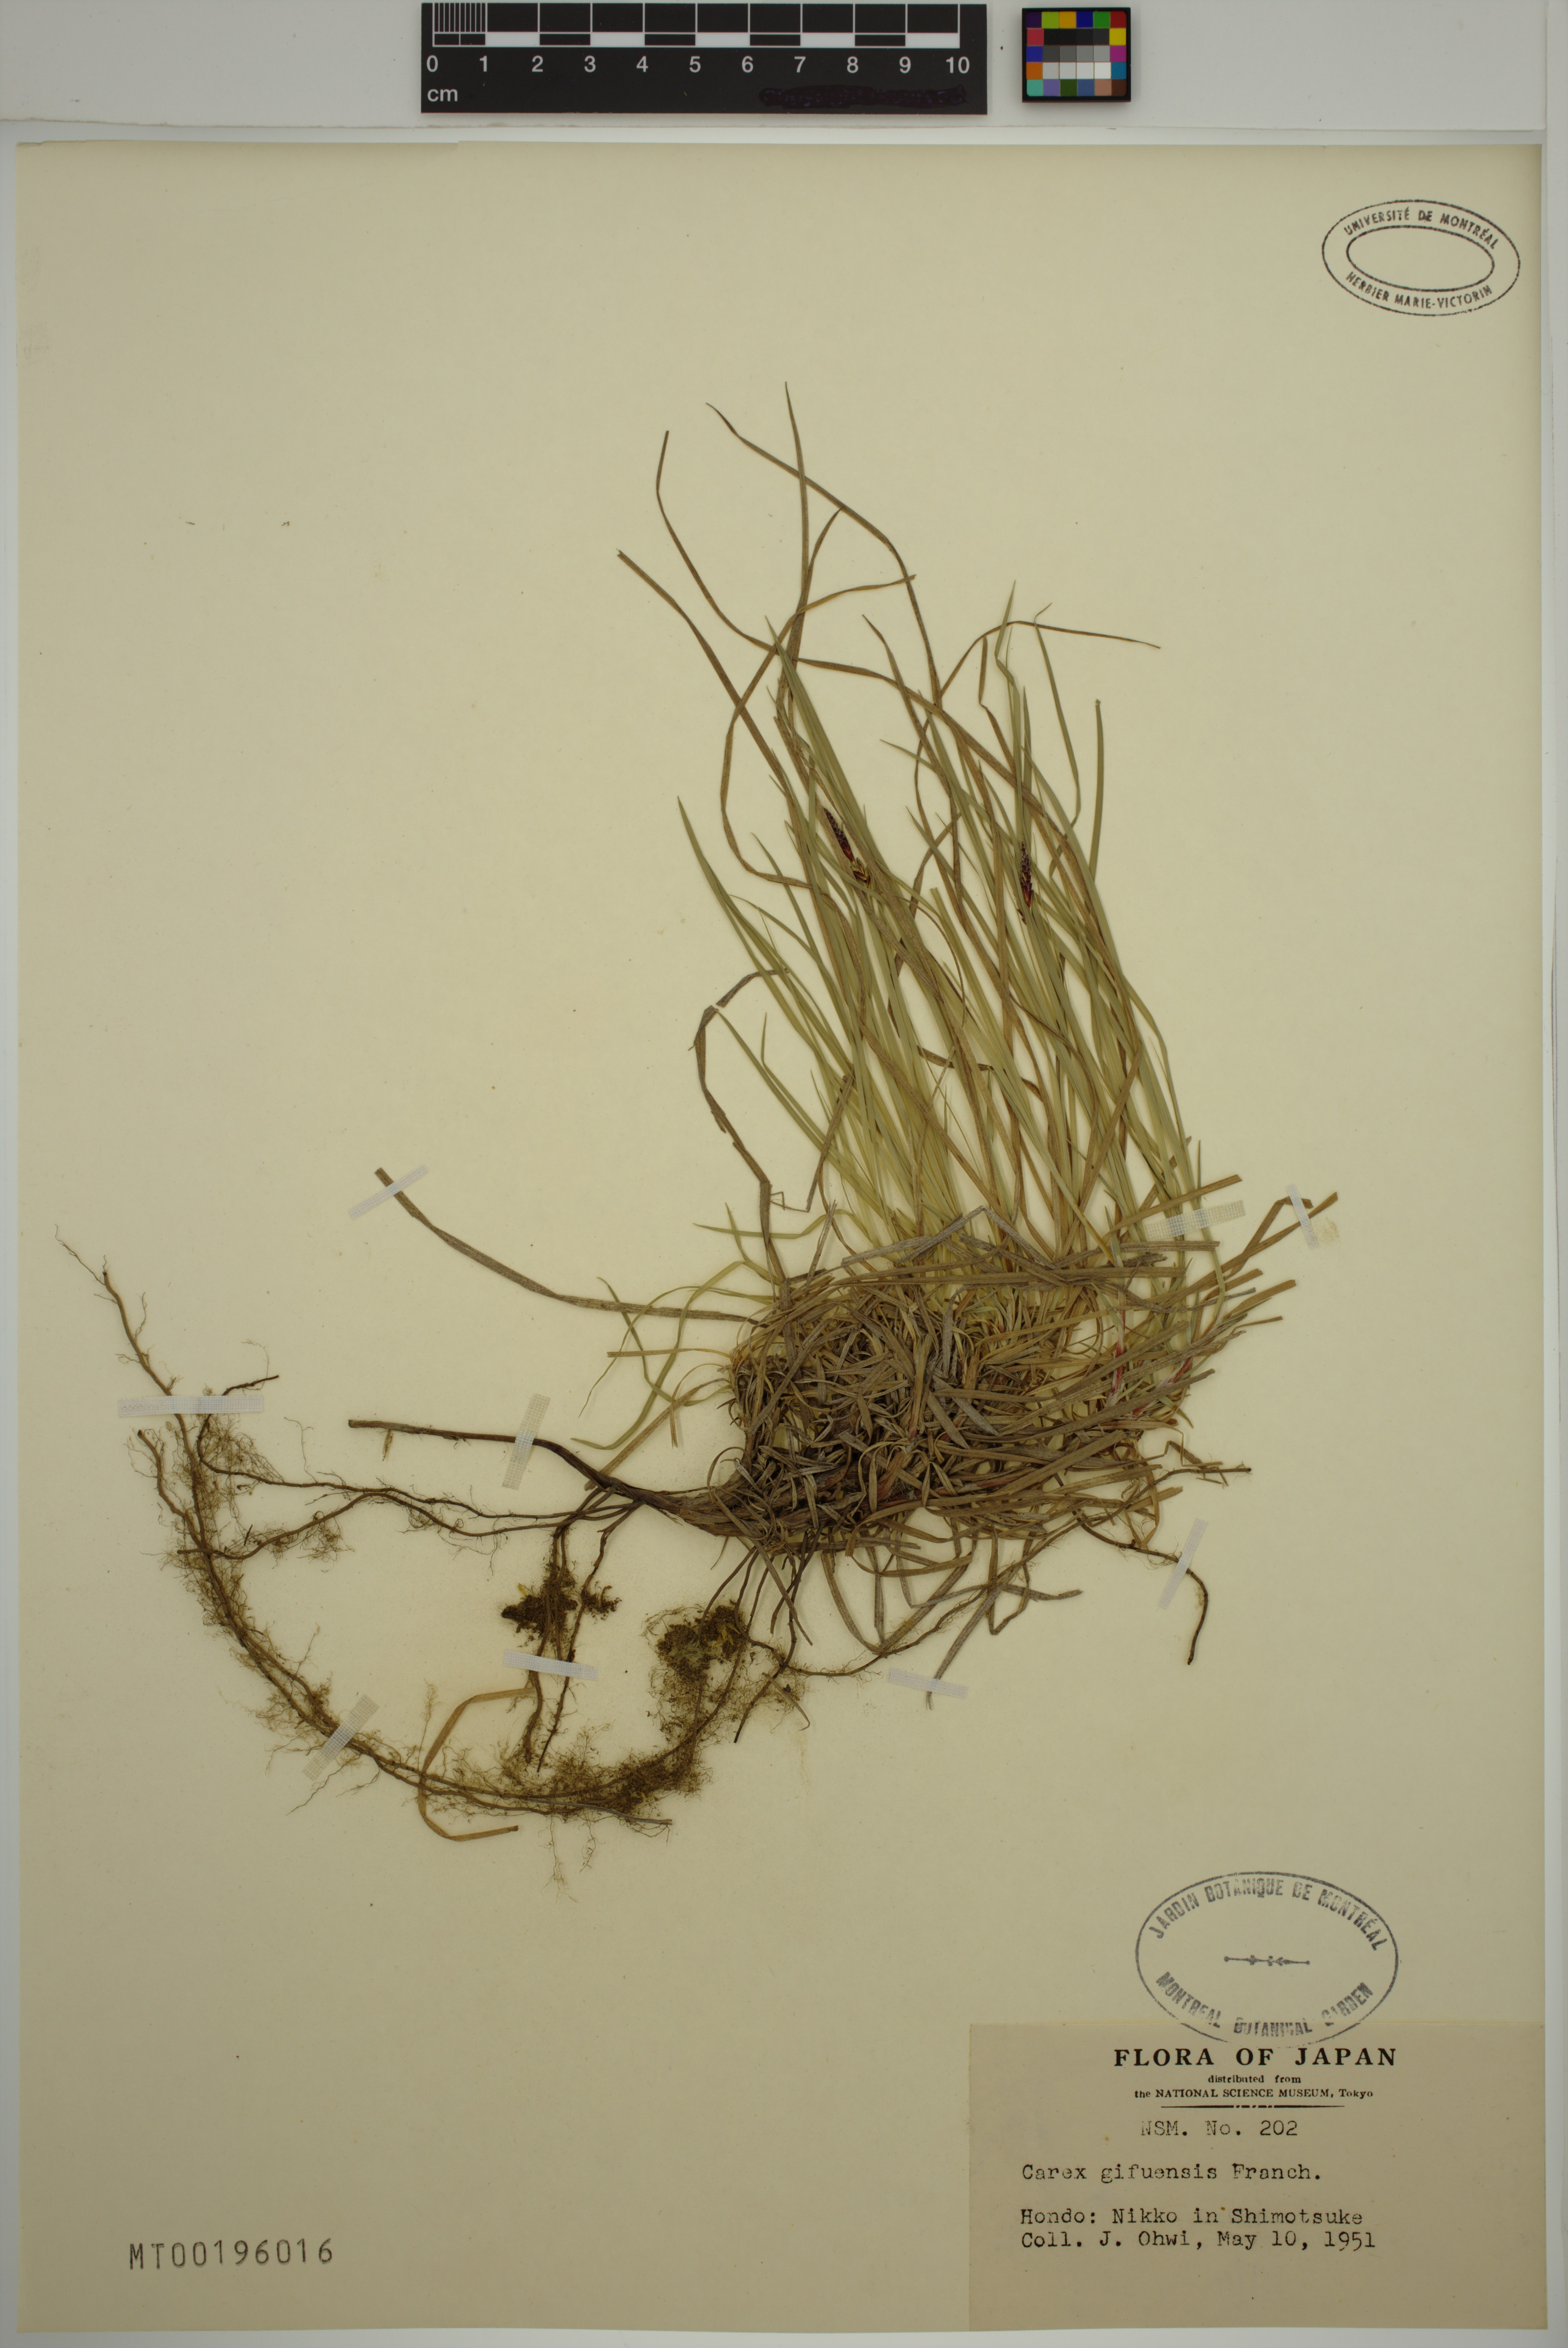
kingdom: Plantae
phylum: Tracheophyta
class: Liliopsida
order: Poales
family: Cyperaceae
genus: Carex
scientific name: Carex gifuensis
